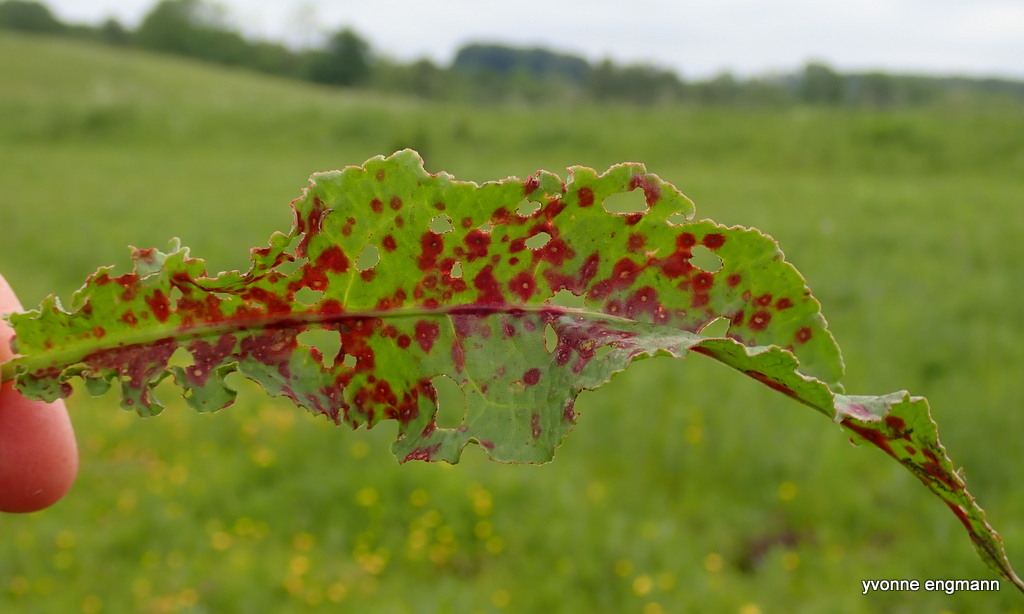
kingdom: Fungi
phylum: Ascomycota
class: Dothideomycetes
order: Capnodiales
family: Mycosphaerellaceae
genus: Ramularia
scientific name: Ramularia
